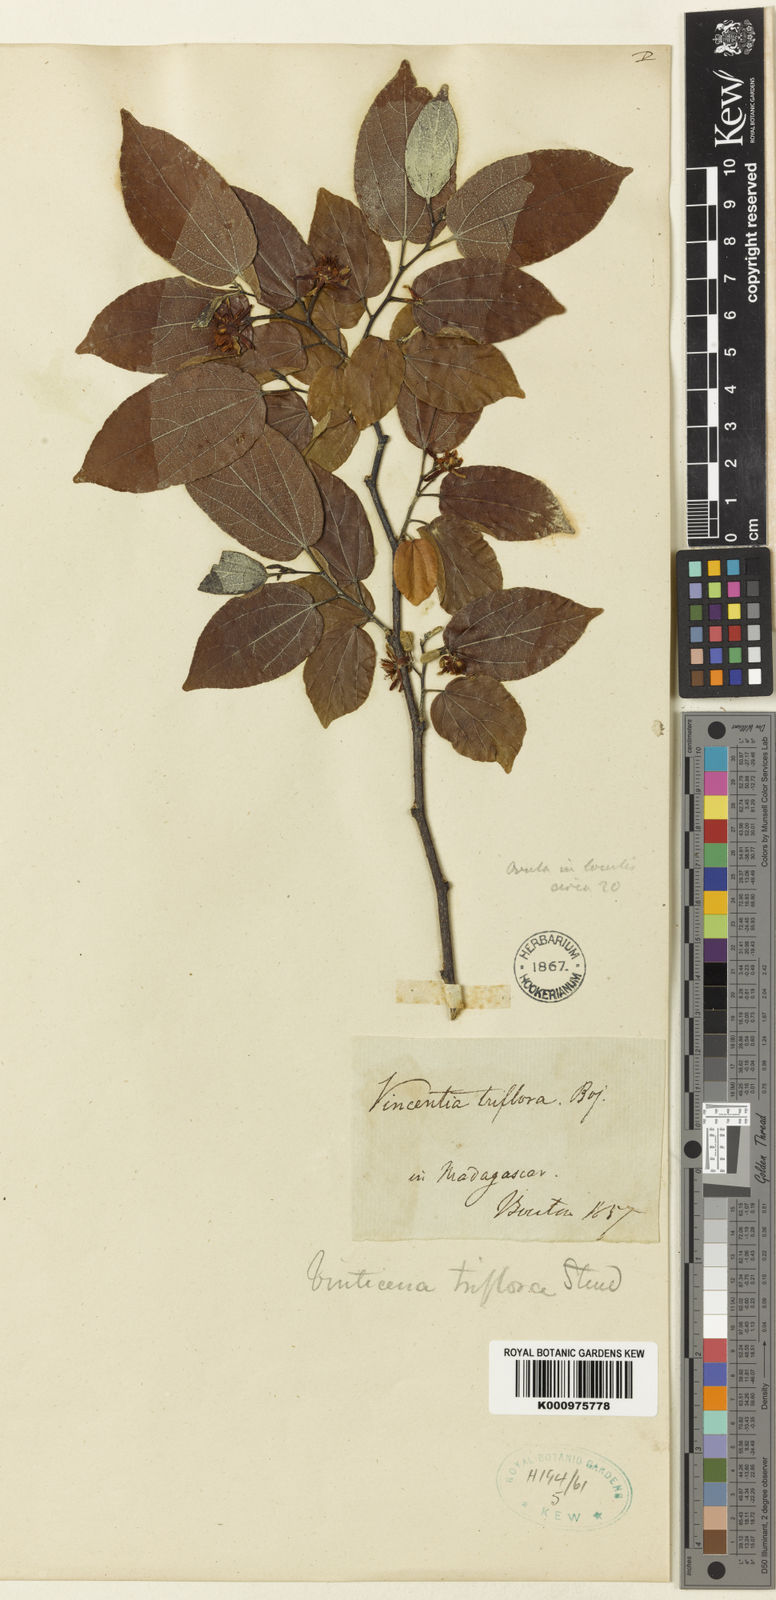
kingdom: Plantae
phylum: Tracheophyta
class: Magnoliopsida
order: Malvales
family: Malvaceae
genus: Grewia
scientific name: Grewia triflora
